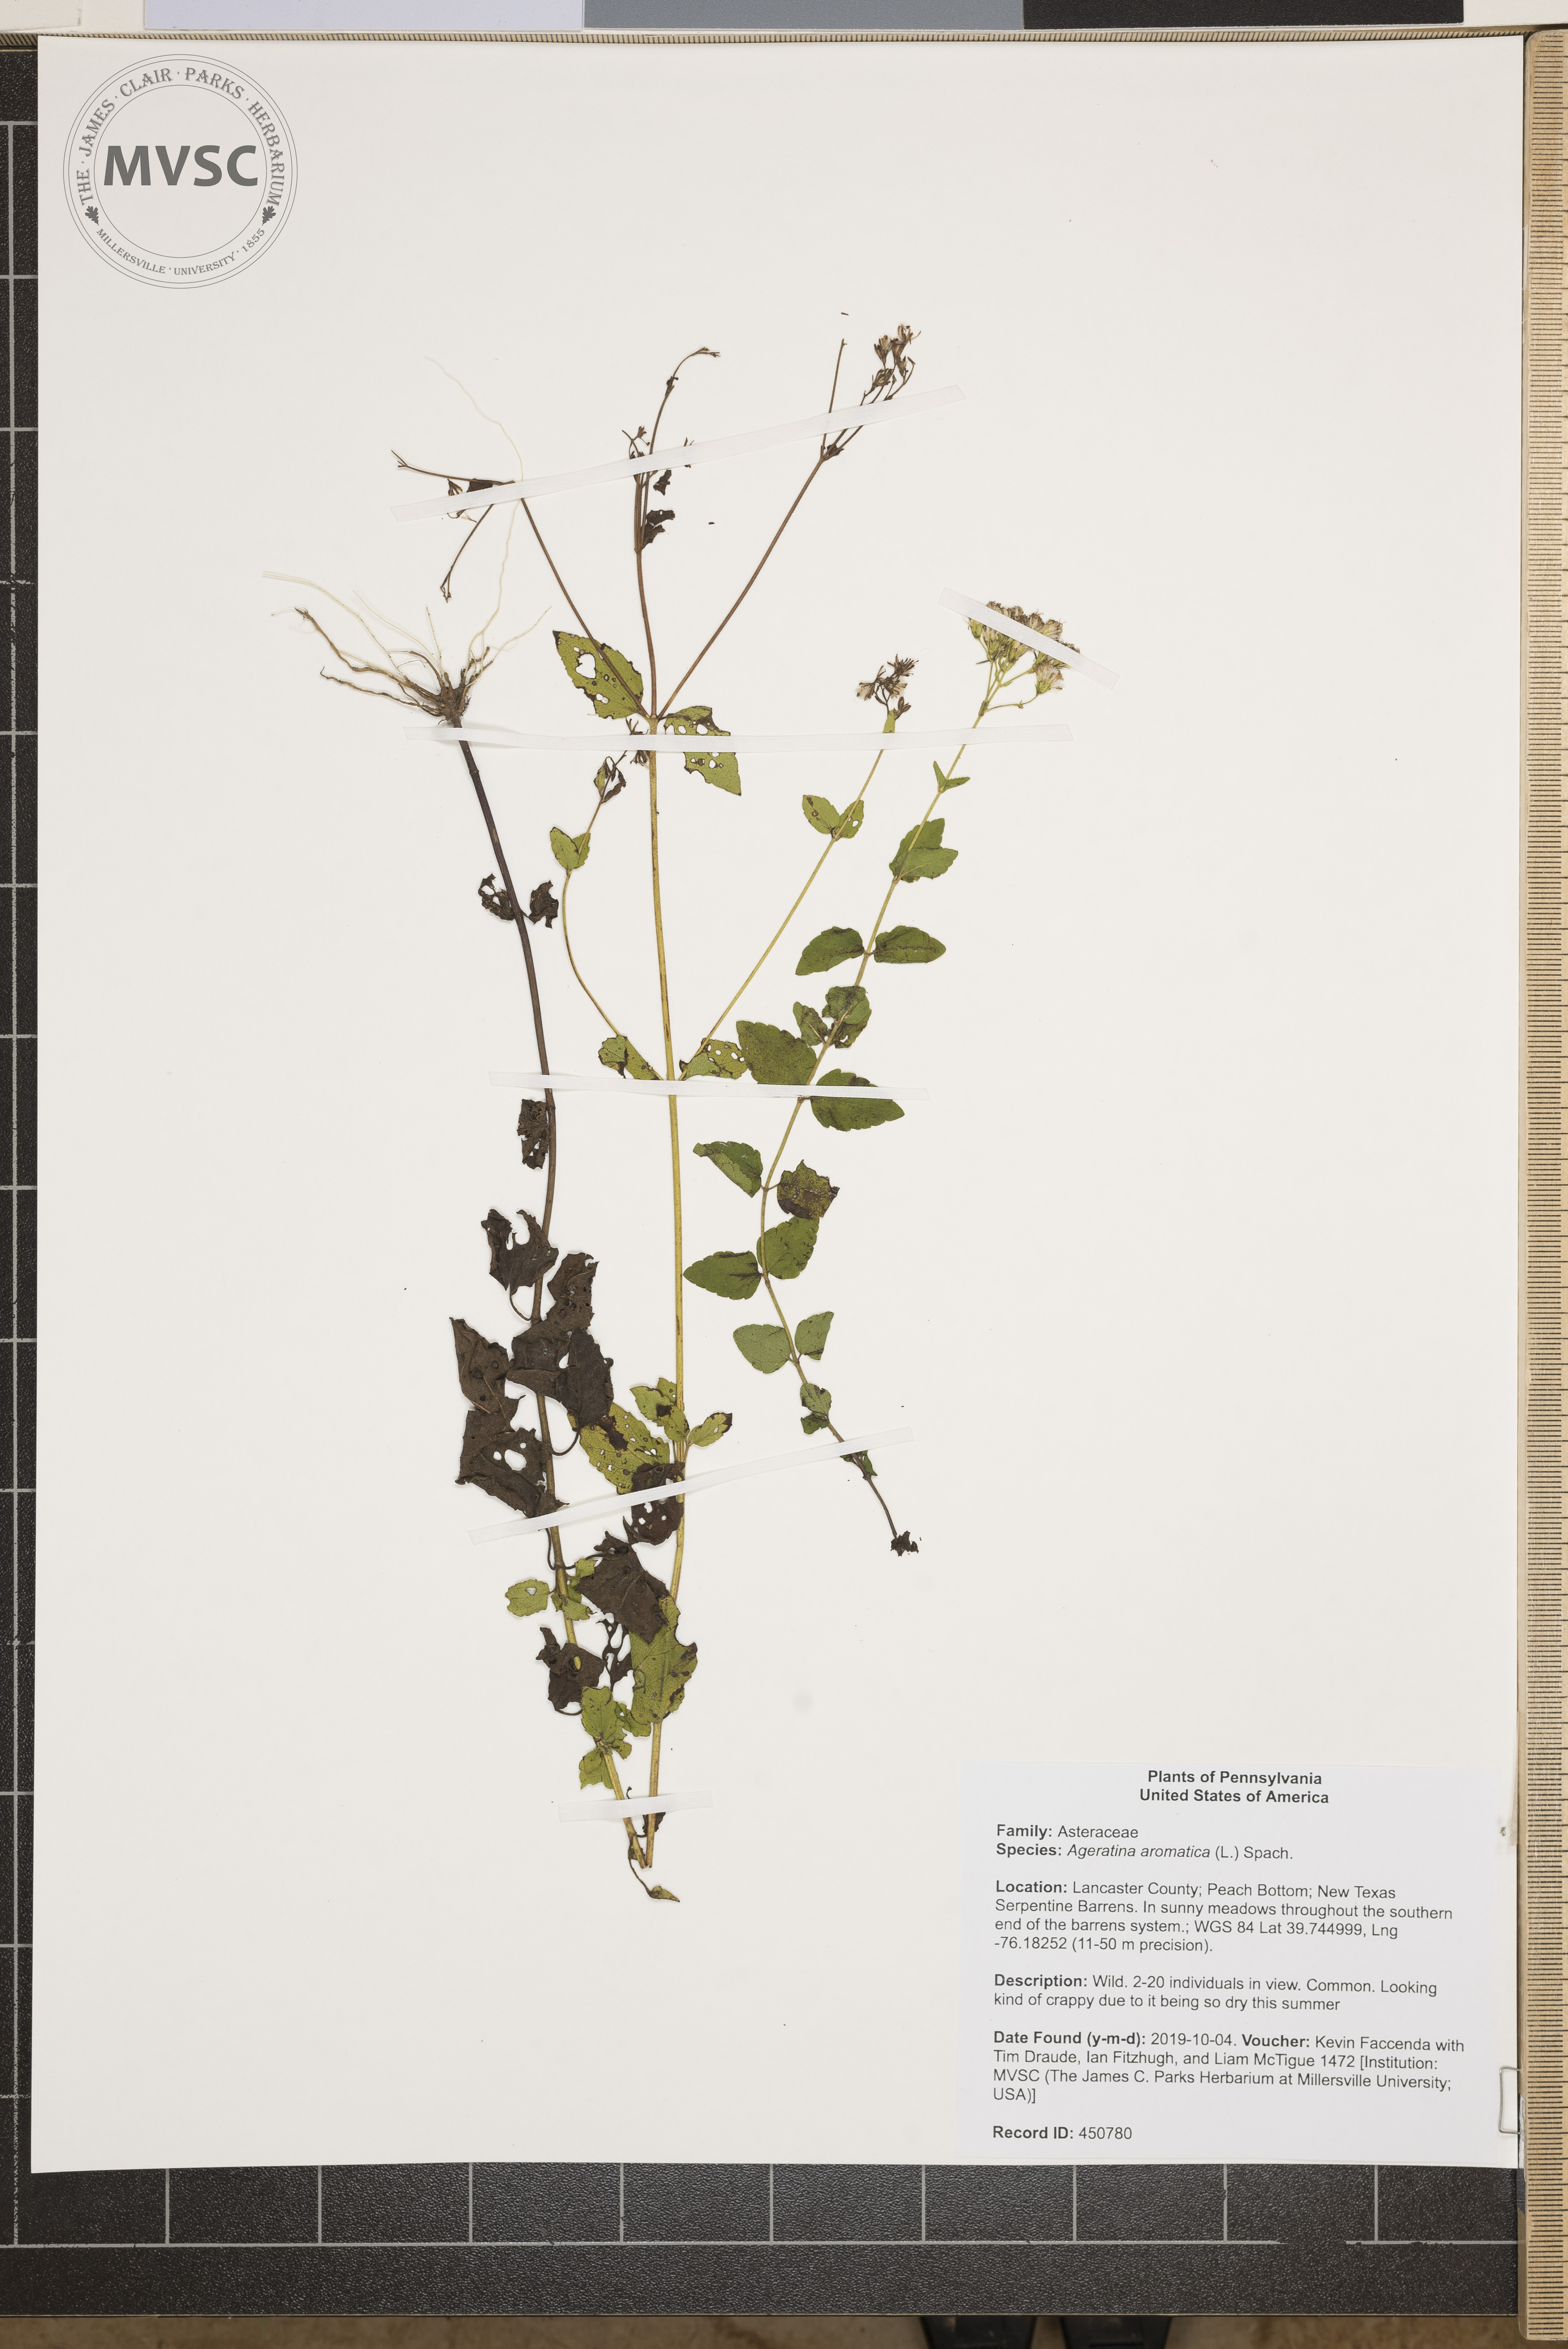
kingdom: Plantae
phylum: Tracheophyta
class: Magnoliopsida
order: Asterales
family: Asteraceae
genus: Ageratina
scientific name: Ageratina aromatica
